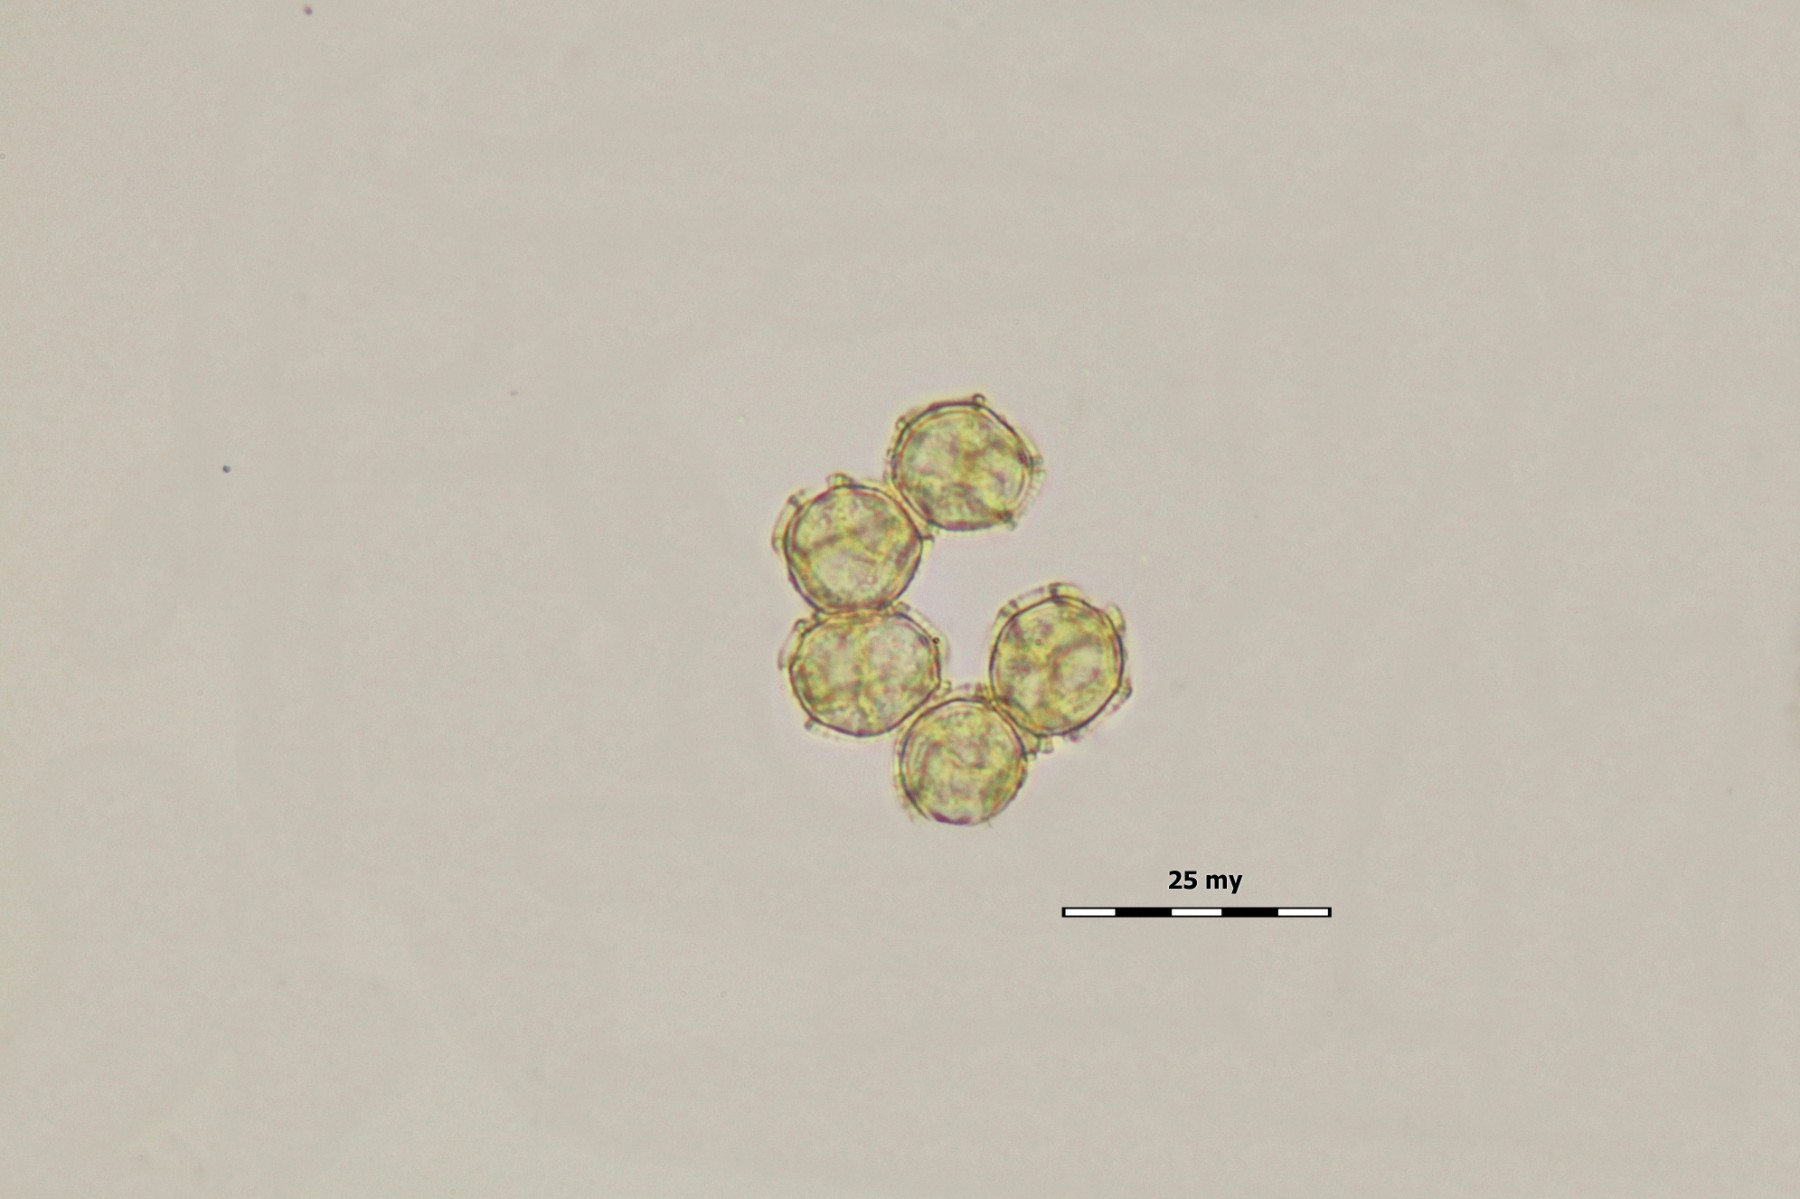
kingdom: Protozoa
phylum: Mycetozoa
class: Myxomycetes
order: Trichiales
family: Trichiaceae
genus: Oligonema
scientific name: Oligonema affine
